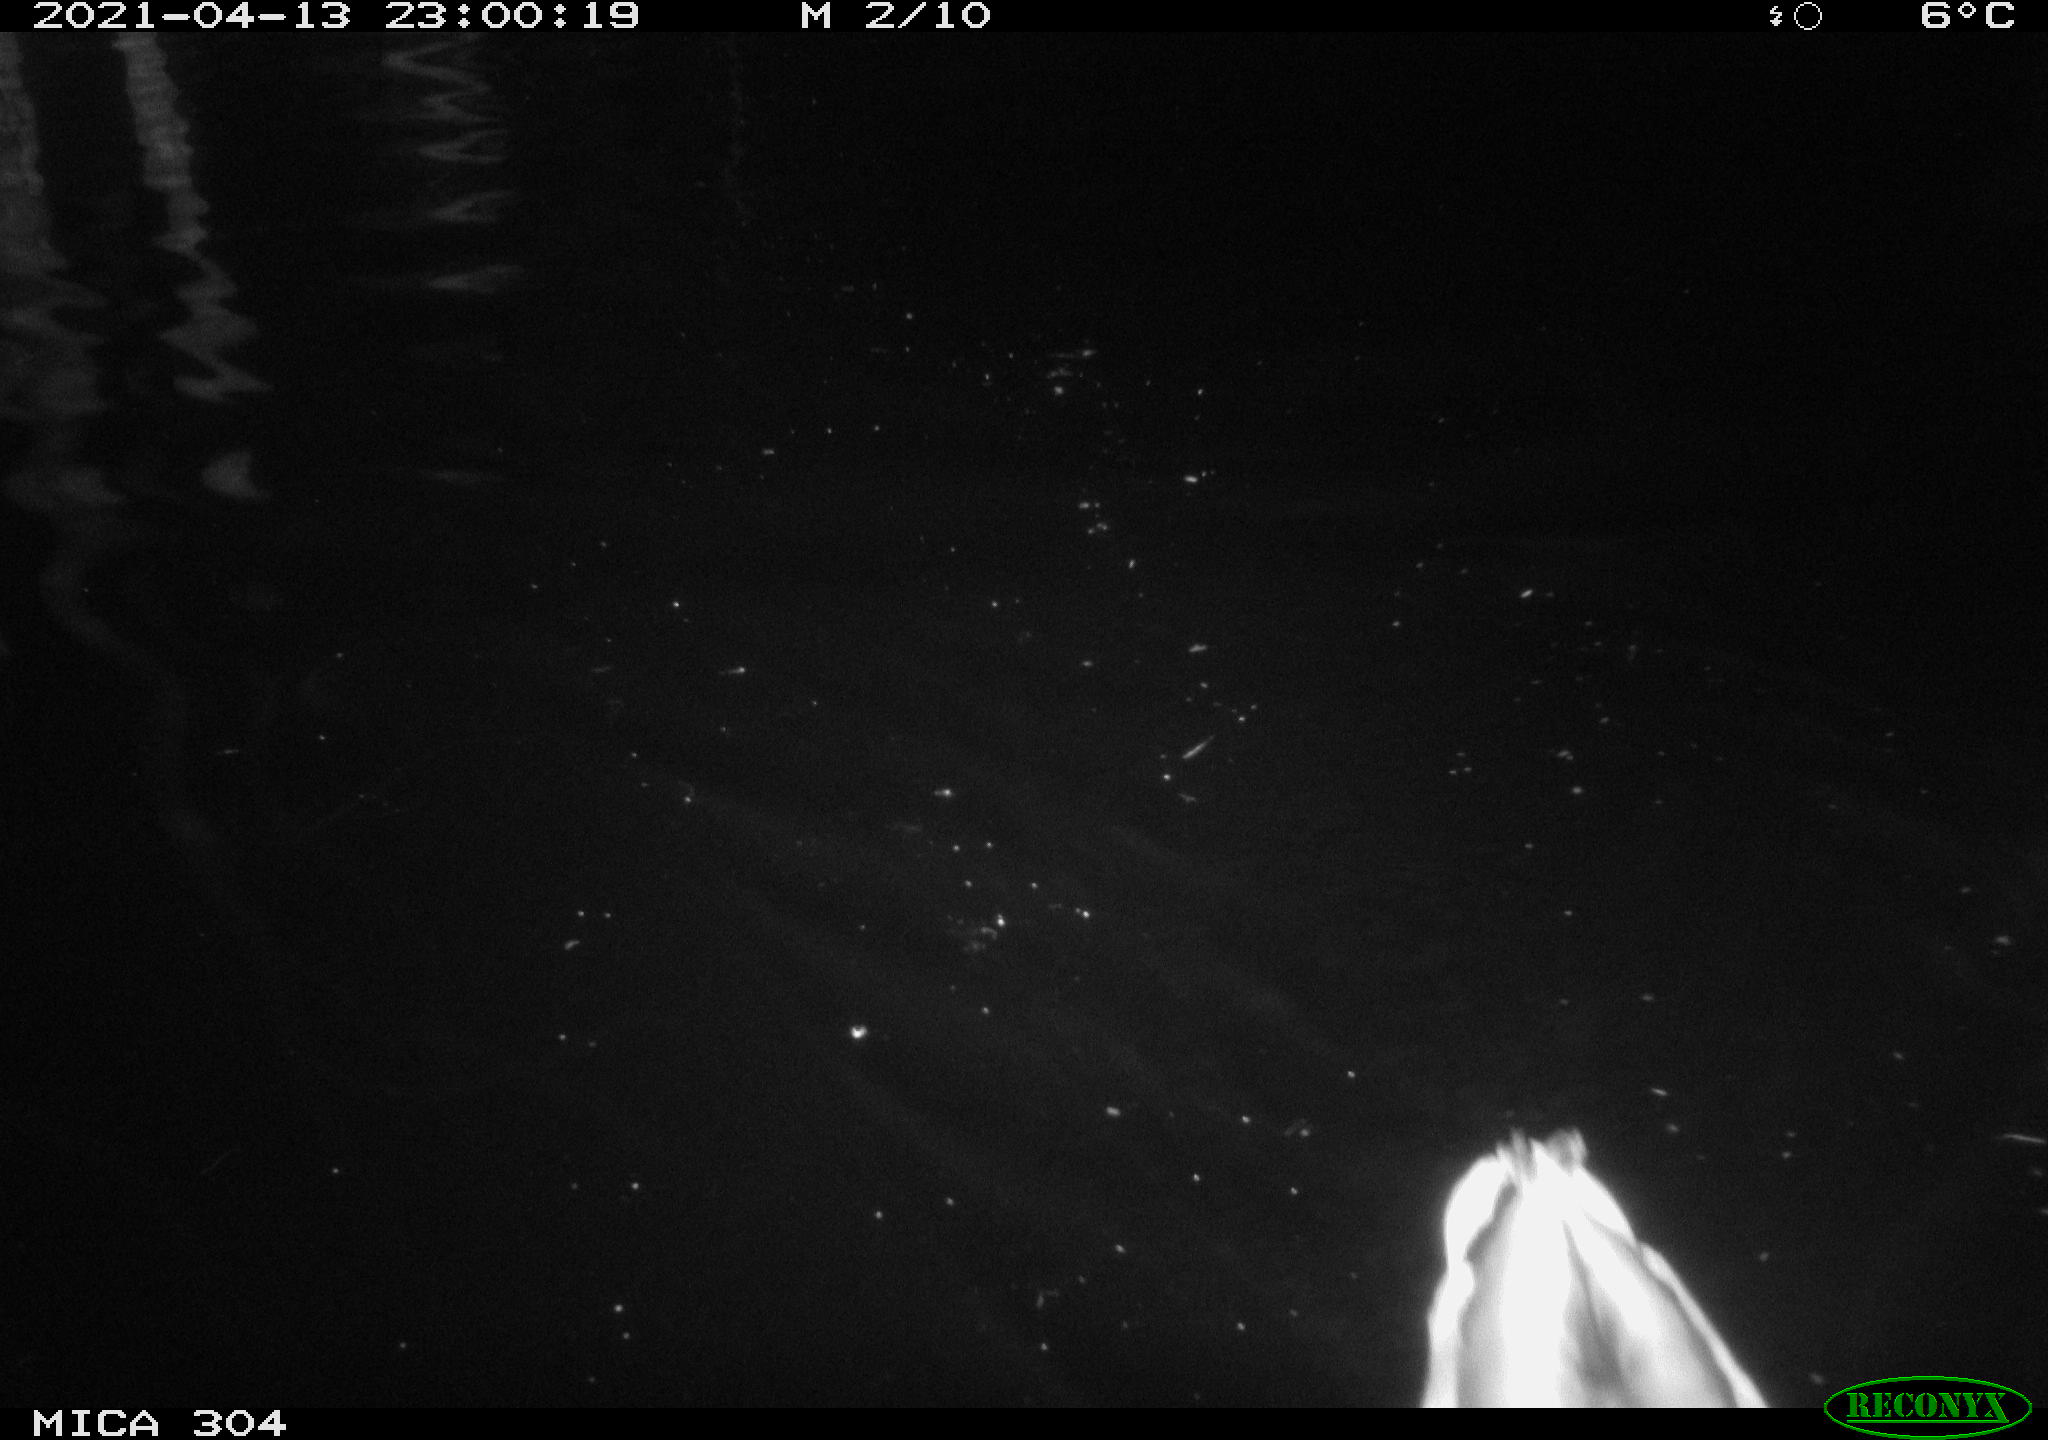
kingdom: Animalia
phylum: Chordata
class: Aves
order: Anseriformes
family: Anatidae
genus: Anas
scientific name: Anas
